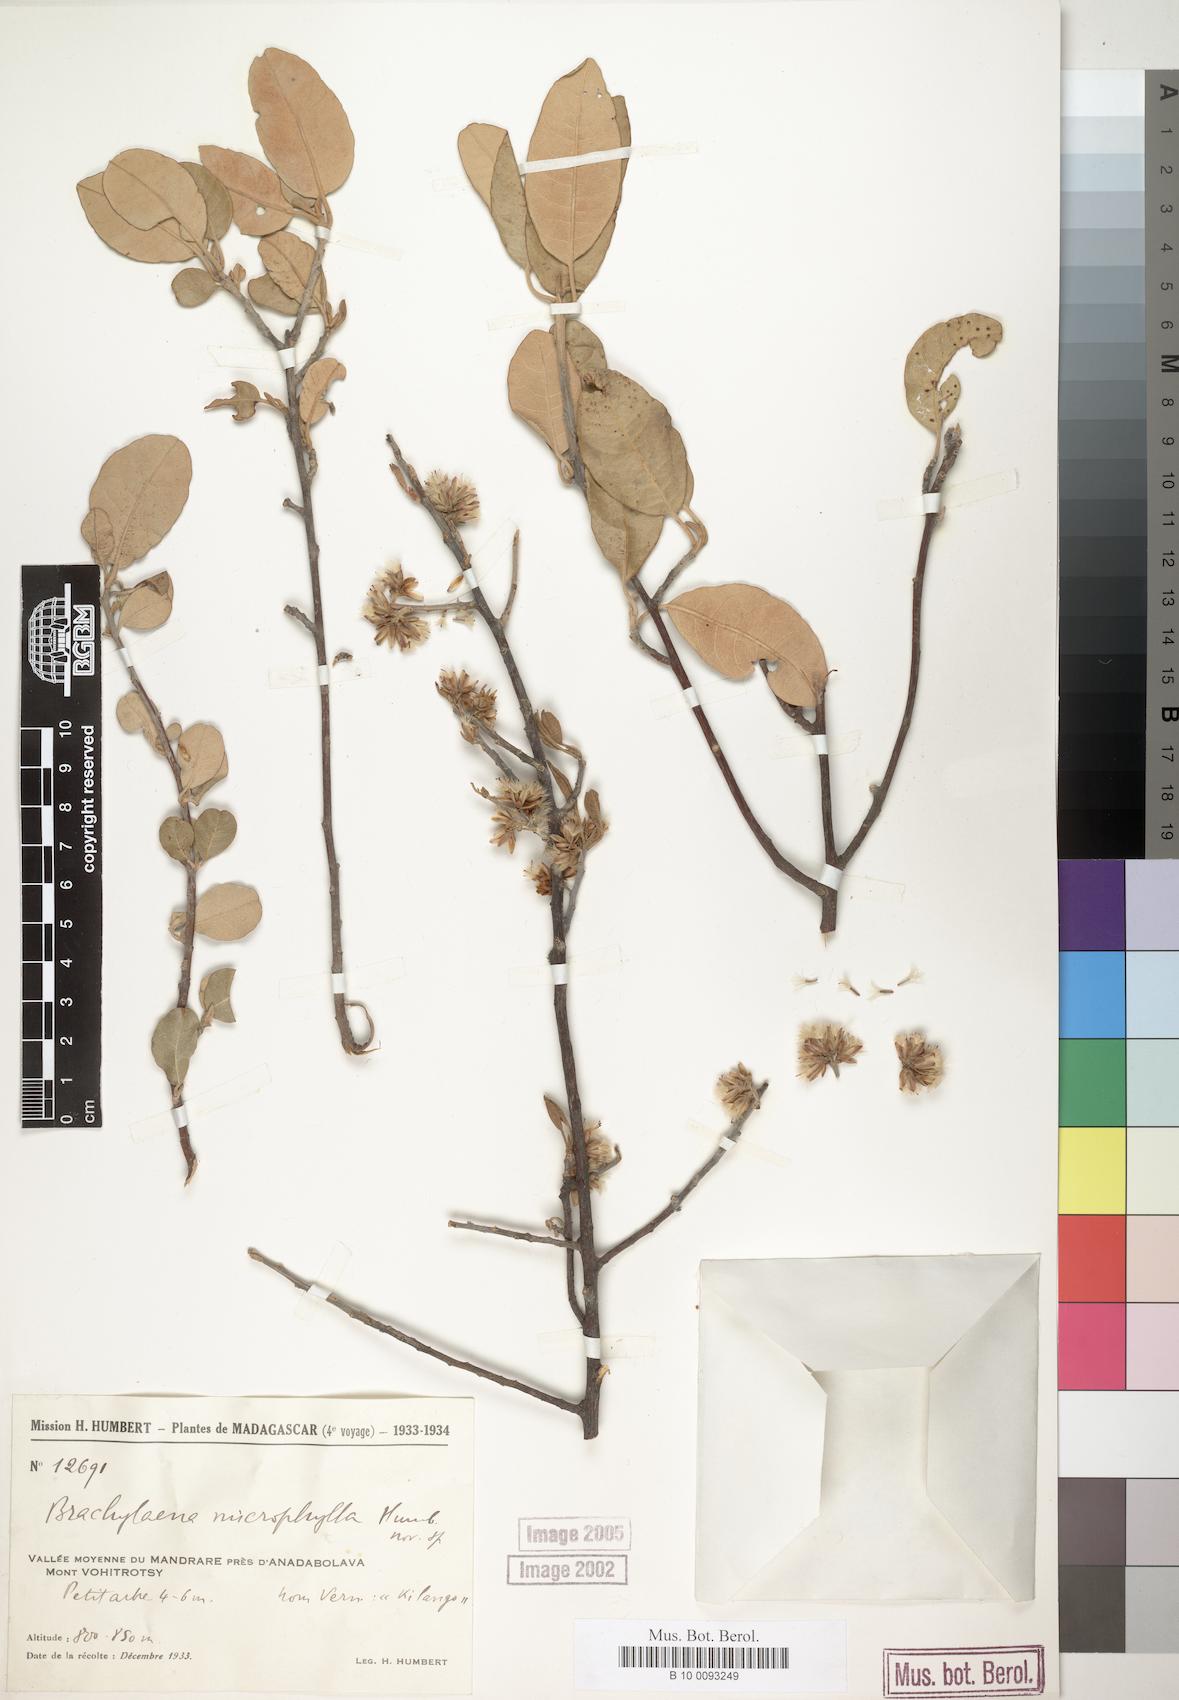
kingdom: Plantae
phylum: Tracheophyta
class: Magnoliopsida
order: Asterales
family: Asteraceae
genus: Brachylaena
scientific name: Brachylaena microphylla
